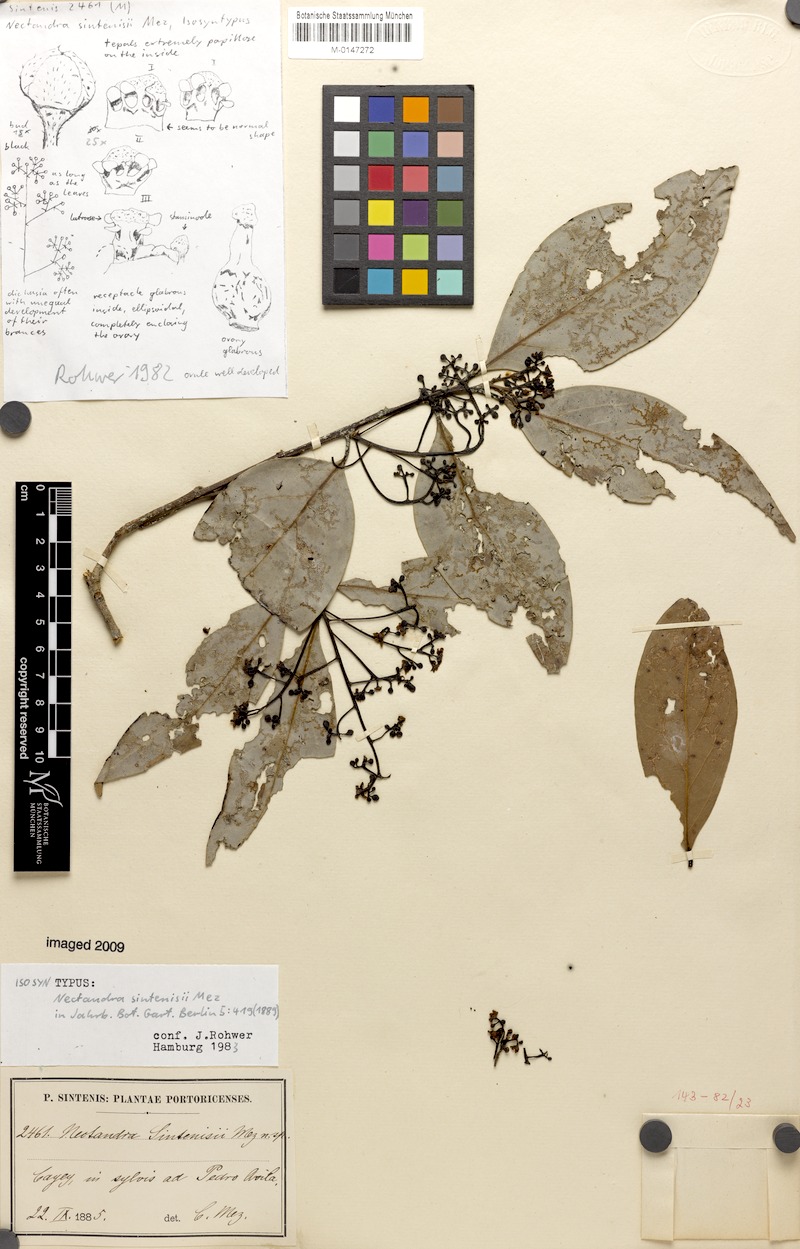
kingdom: Plantae
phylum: Tracheophyta
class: Magnoliopsida
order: Laurales
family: Lauraceae
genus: Nectandra
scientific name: Nectandra turbacensis
